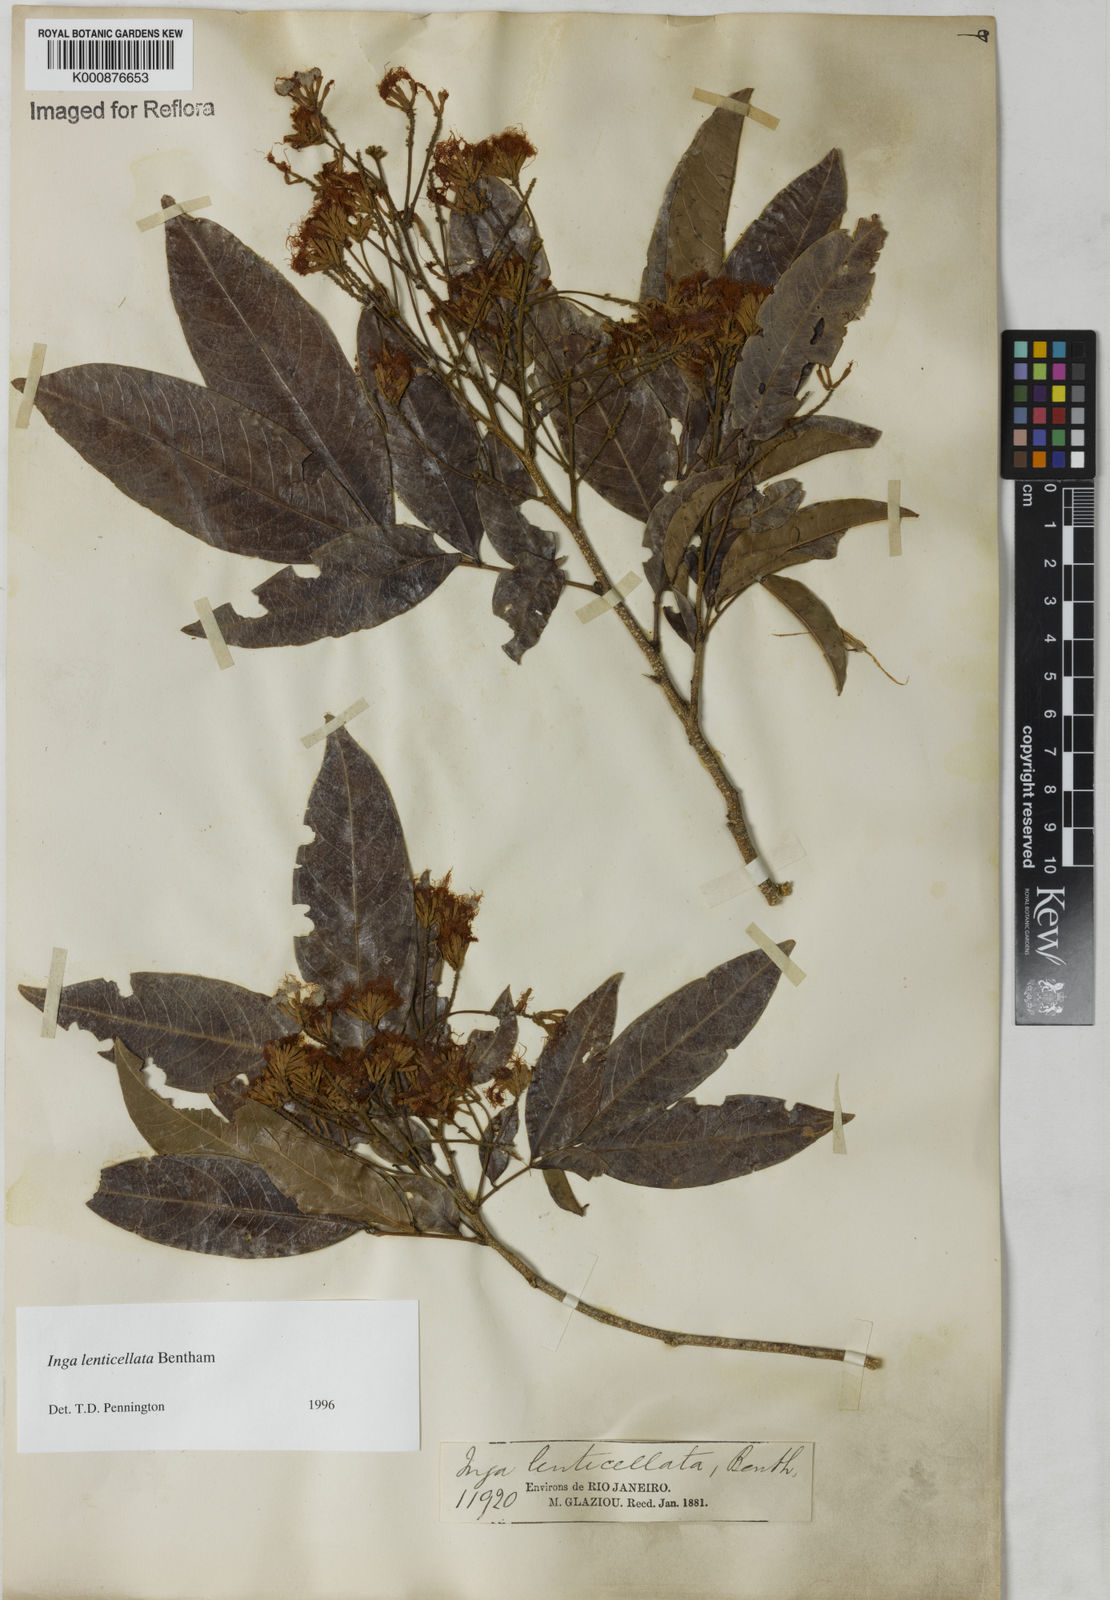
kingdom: Plantae
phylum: Tracheophyta
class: Magnoliopsida
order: Fabales
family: Fabaceae
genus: Inga
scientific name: Inga lenticellata
